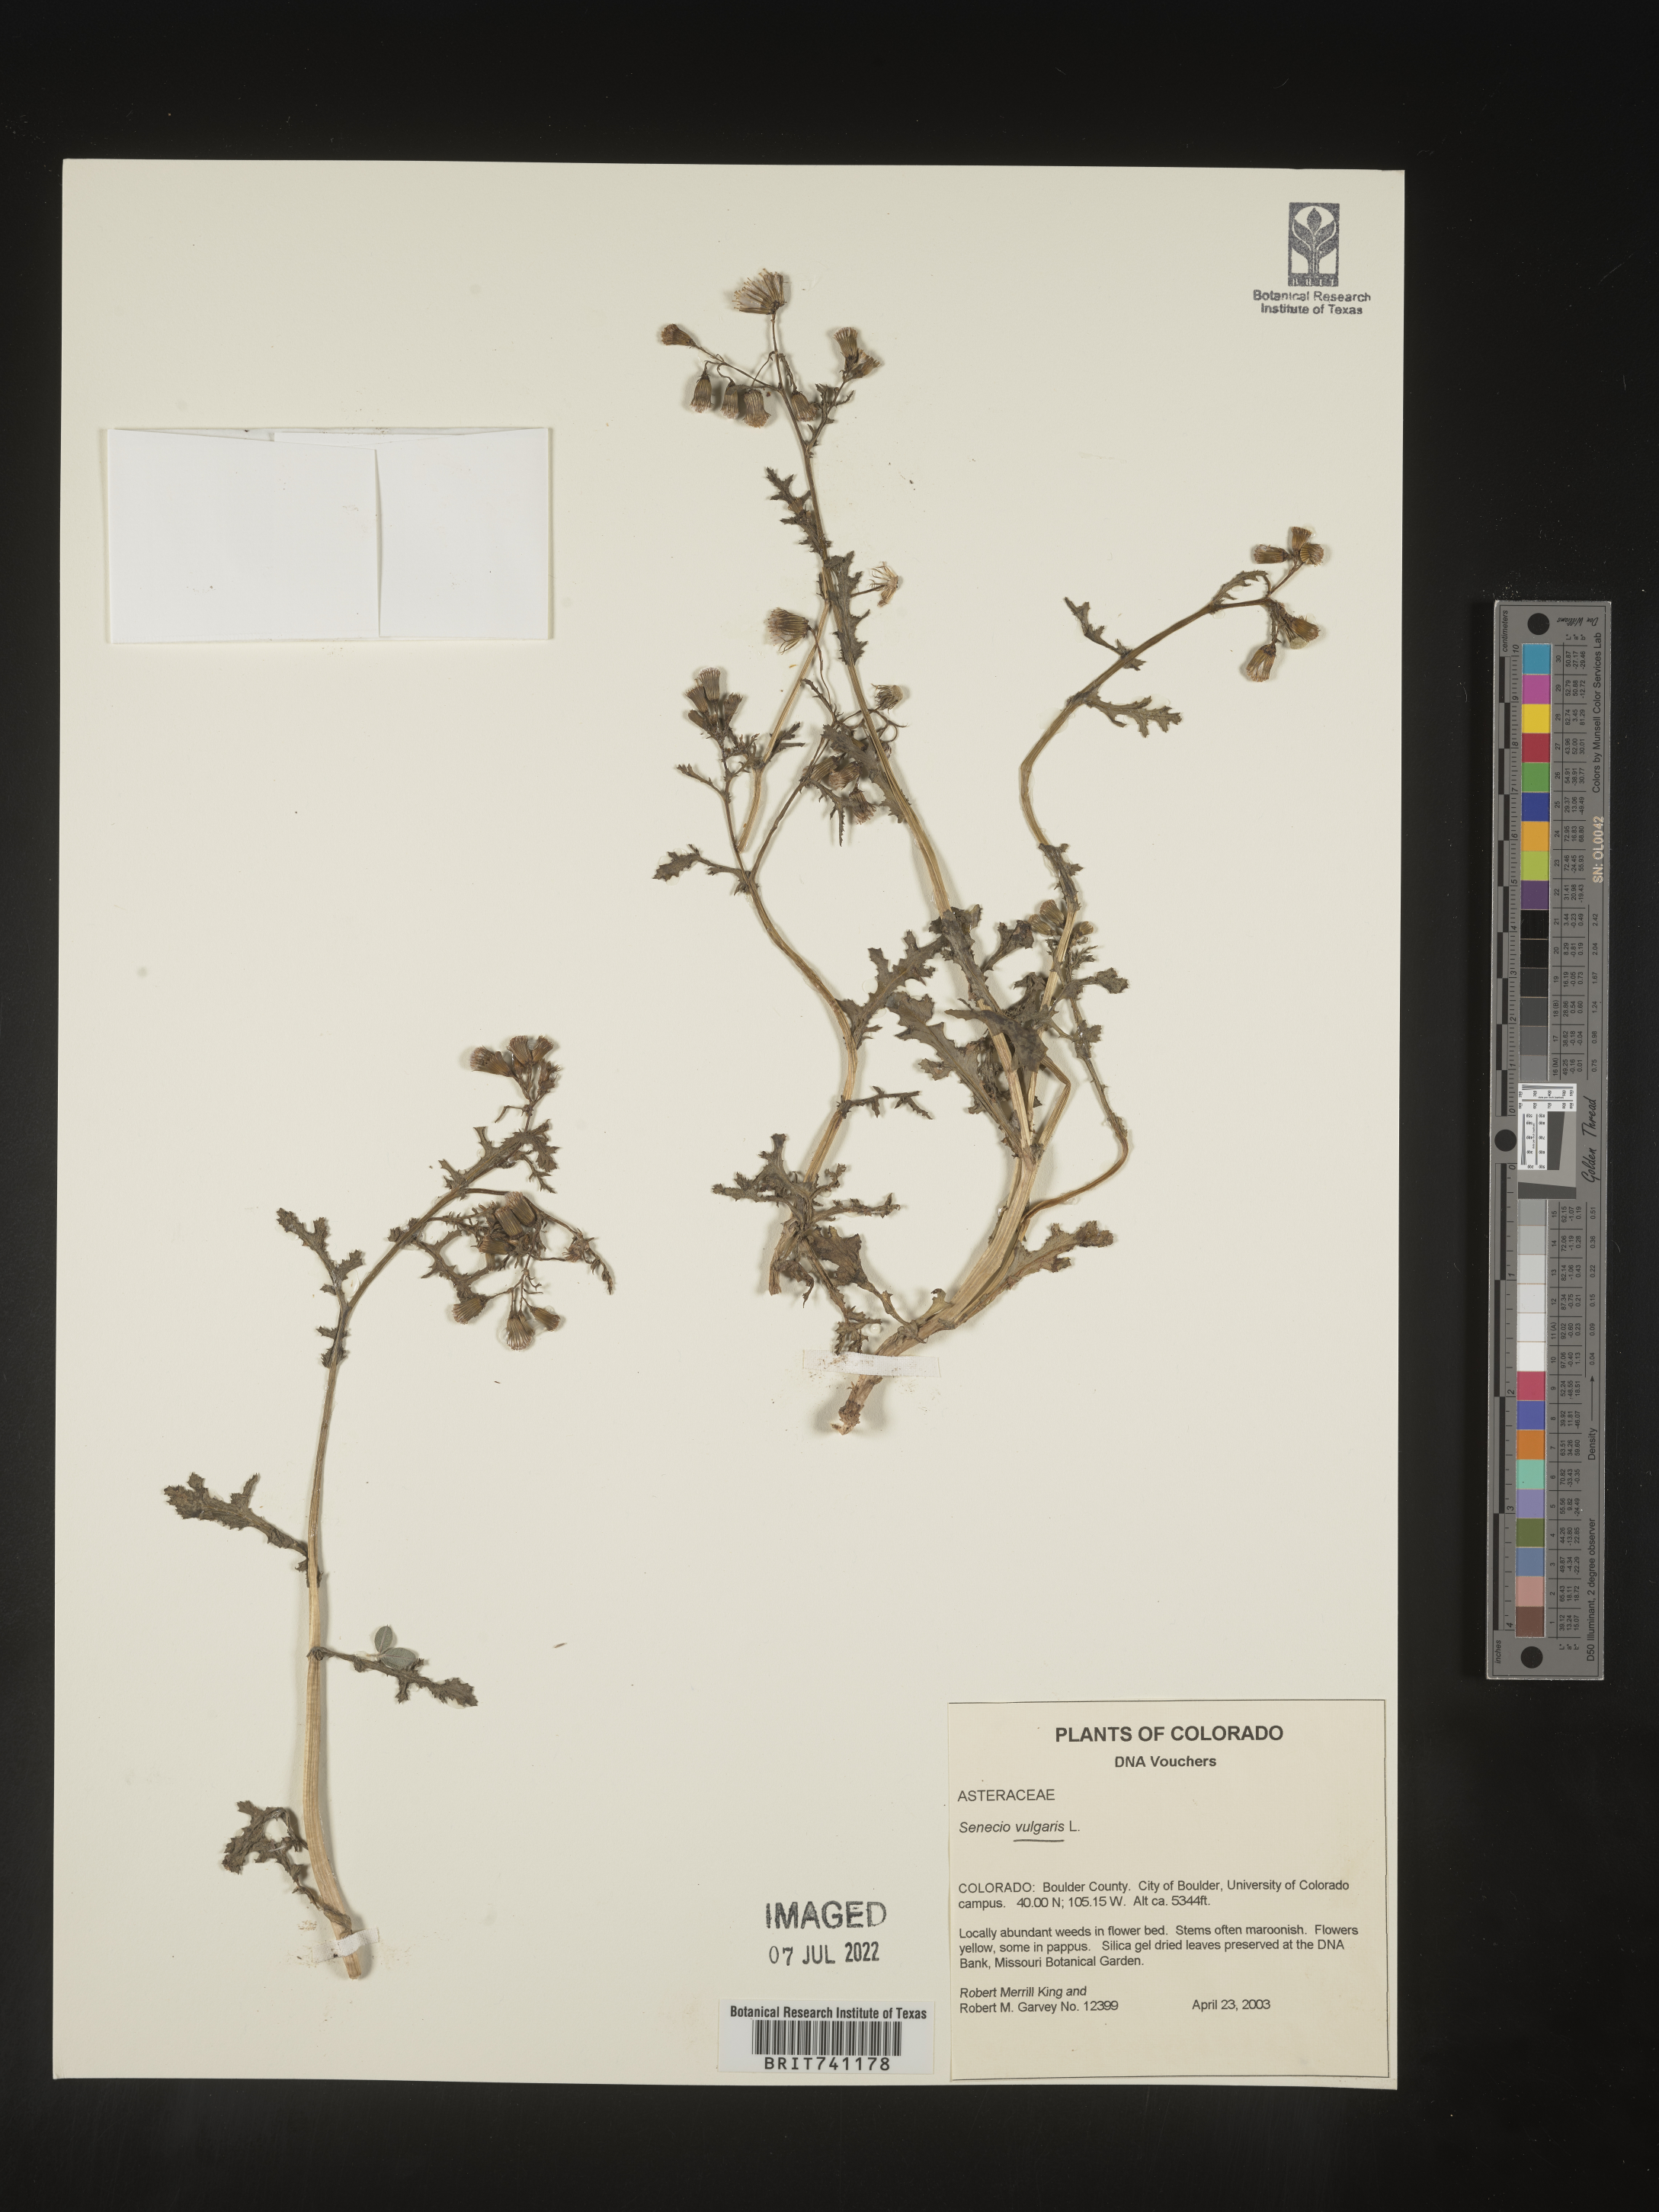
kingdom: Plantae
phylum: Tracheophyta
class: Magnoliopsida
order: Asterales
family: Asteraceae
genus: Senecio
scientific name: Senecio vulgaris
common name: Old-man-in-the-spring
